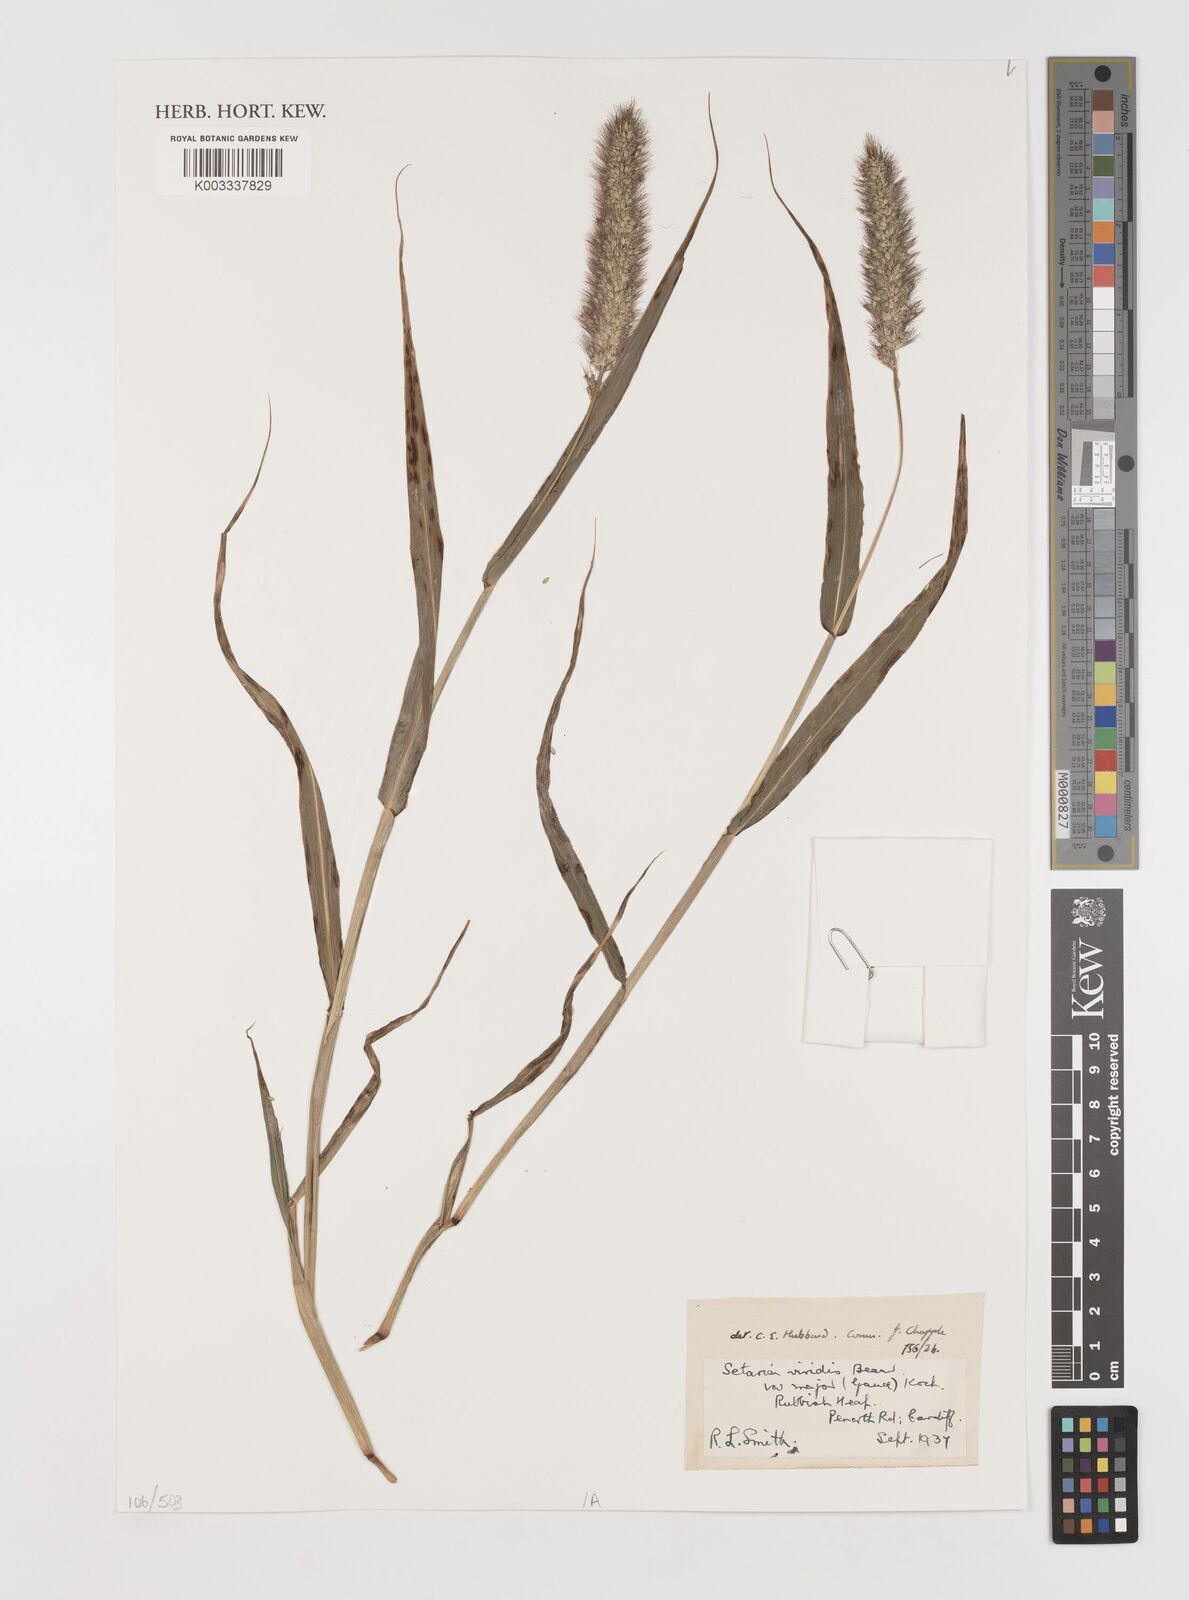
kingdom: Plantae
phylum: Tracheophyta
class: Liliopsida
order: Poales
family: Poaceae
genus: Setaria
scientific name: Setaria viridis
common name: Green bristlegrass
